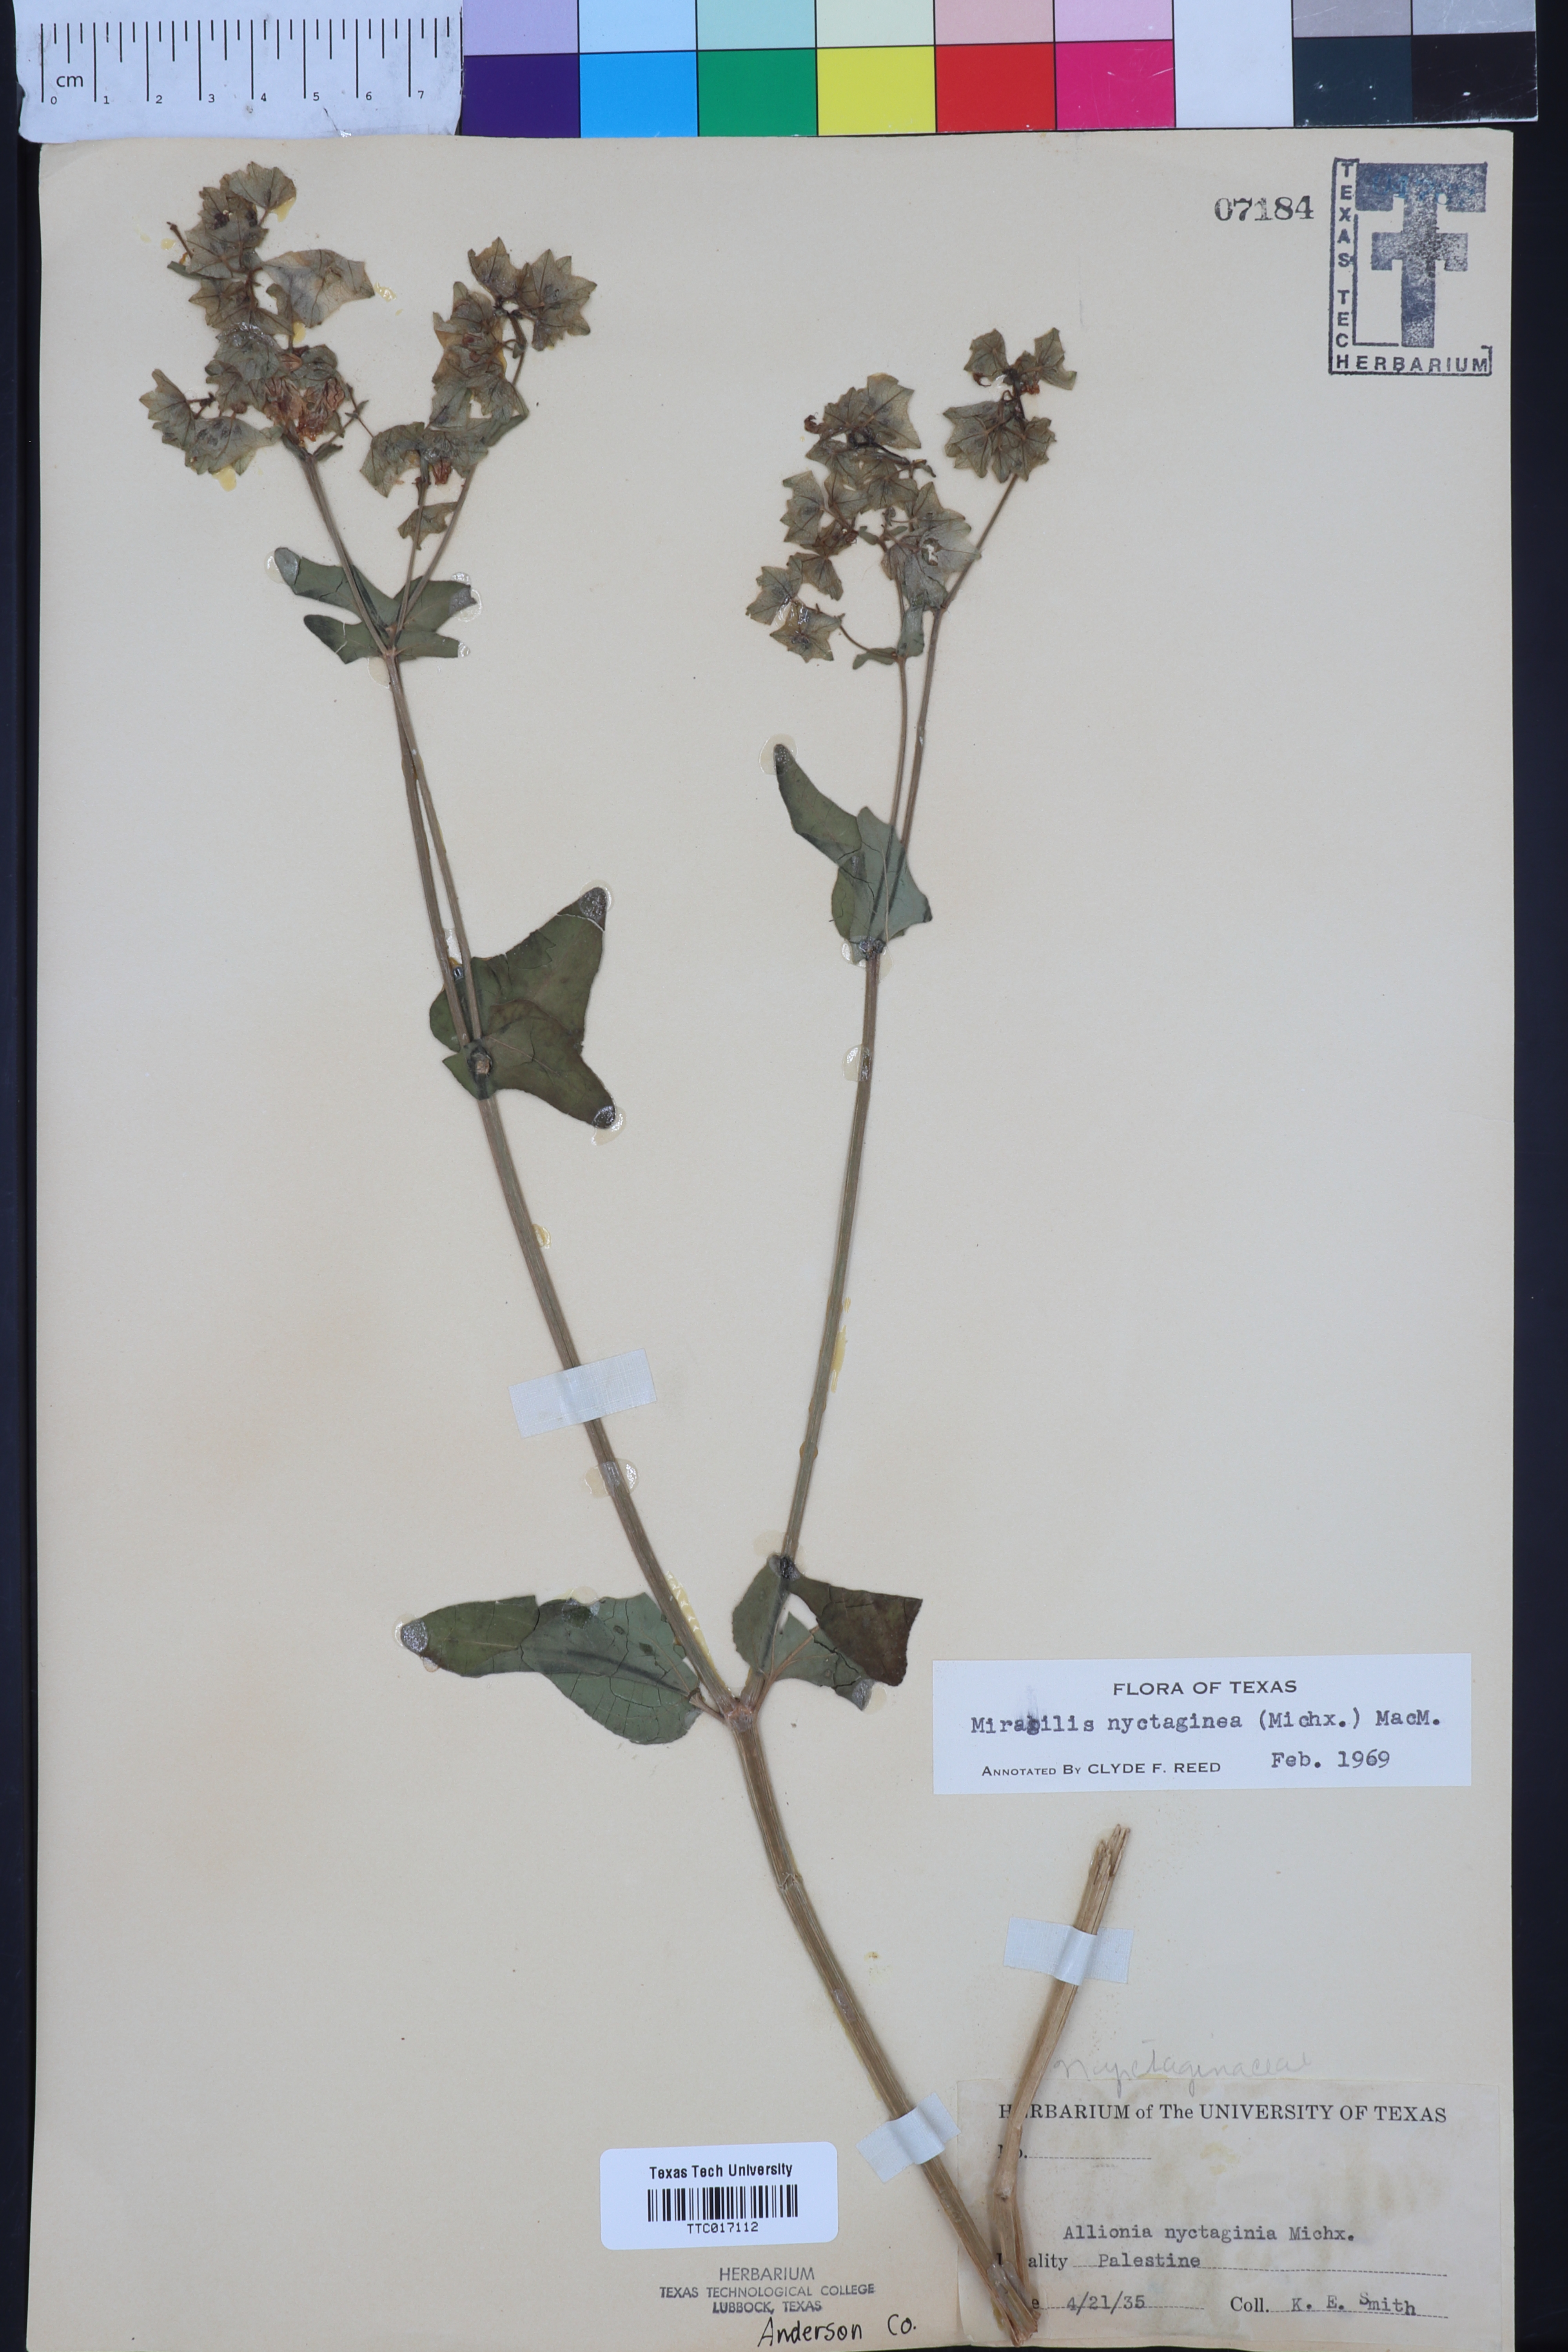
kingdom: Plantae
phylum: Tracheophyta
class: Magnoliopsida
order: Caryophyllales
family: Nyctaginaceae
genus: Mirabilis
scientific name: Mirabilis nyctaginea
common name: Umbrella wort
